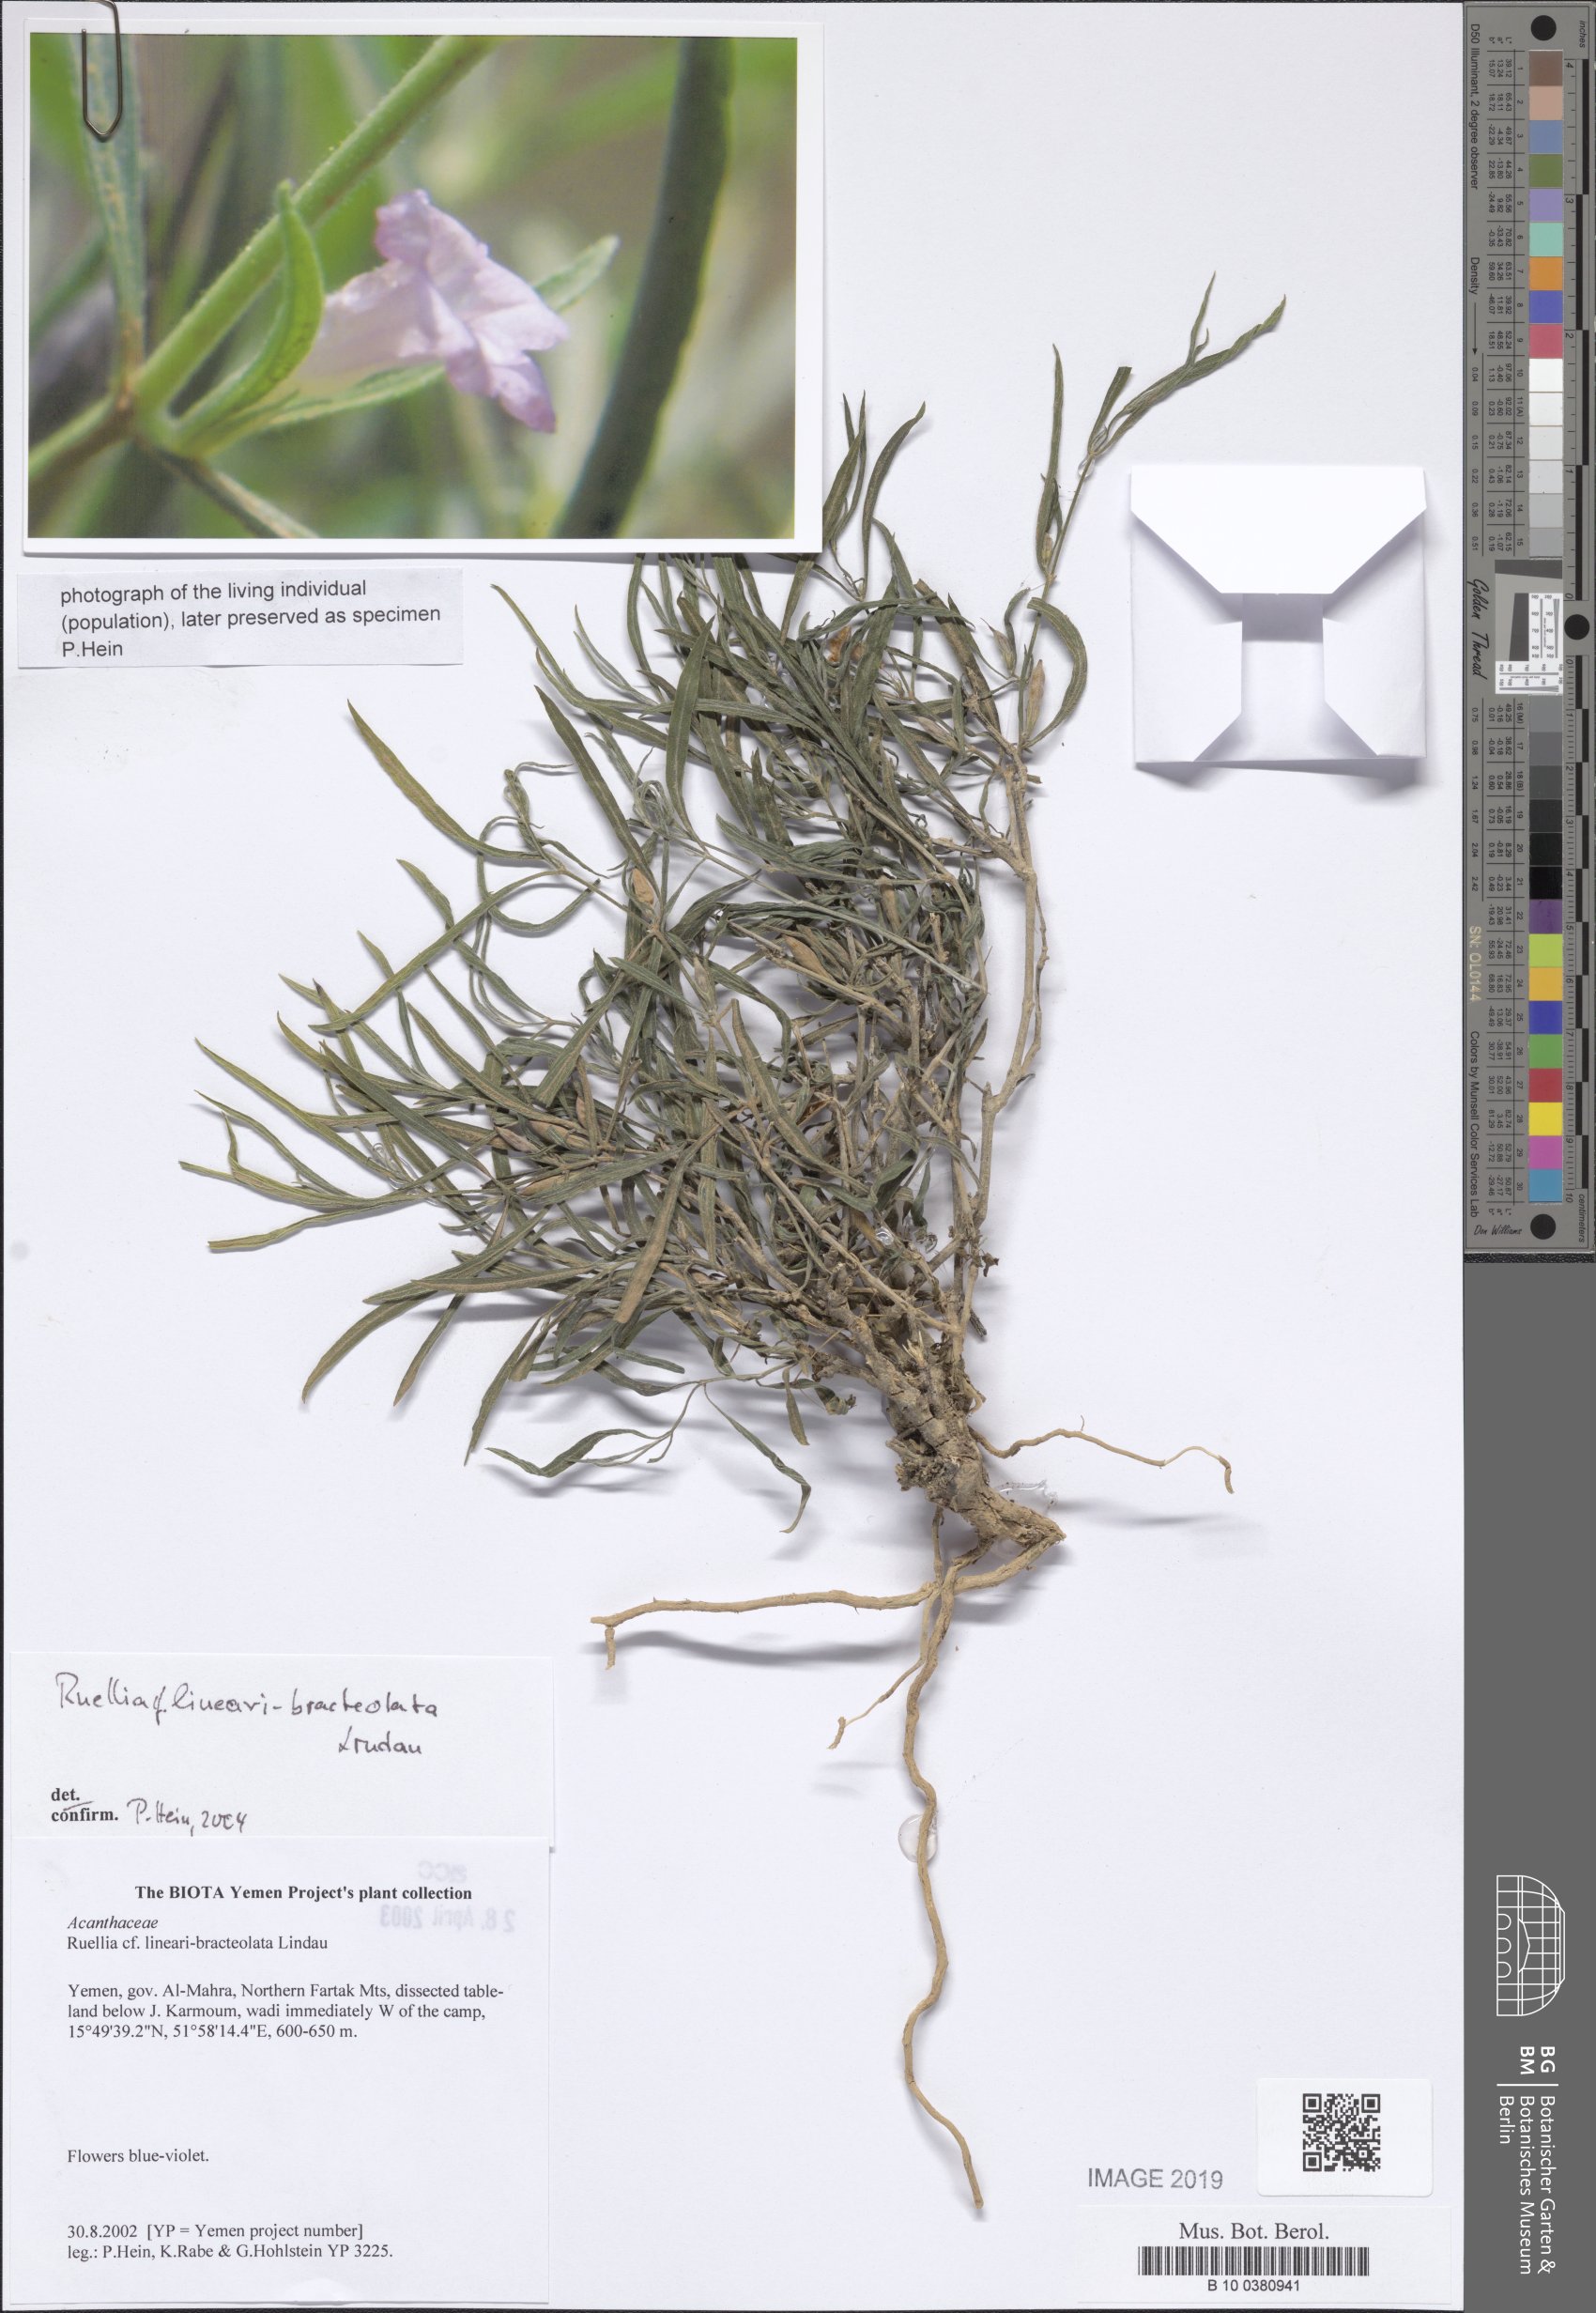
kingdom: Plantae
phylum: Tracheophyta
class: Magnoliopsida
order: Lamiales
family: Acanthaceae
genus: Ruellia
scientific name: Ruellia linearibracteolata
